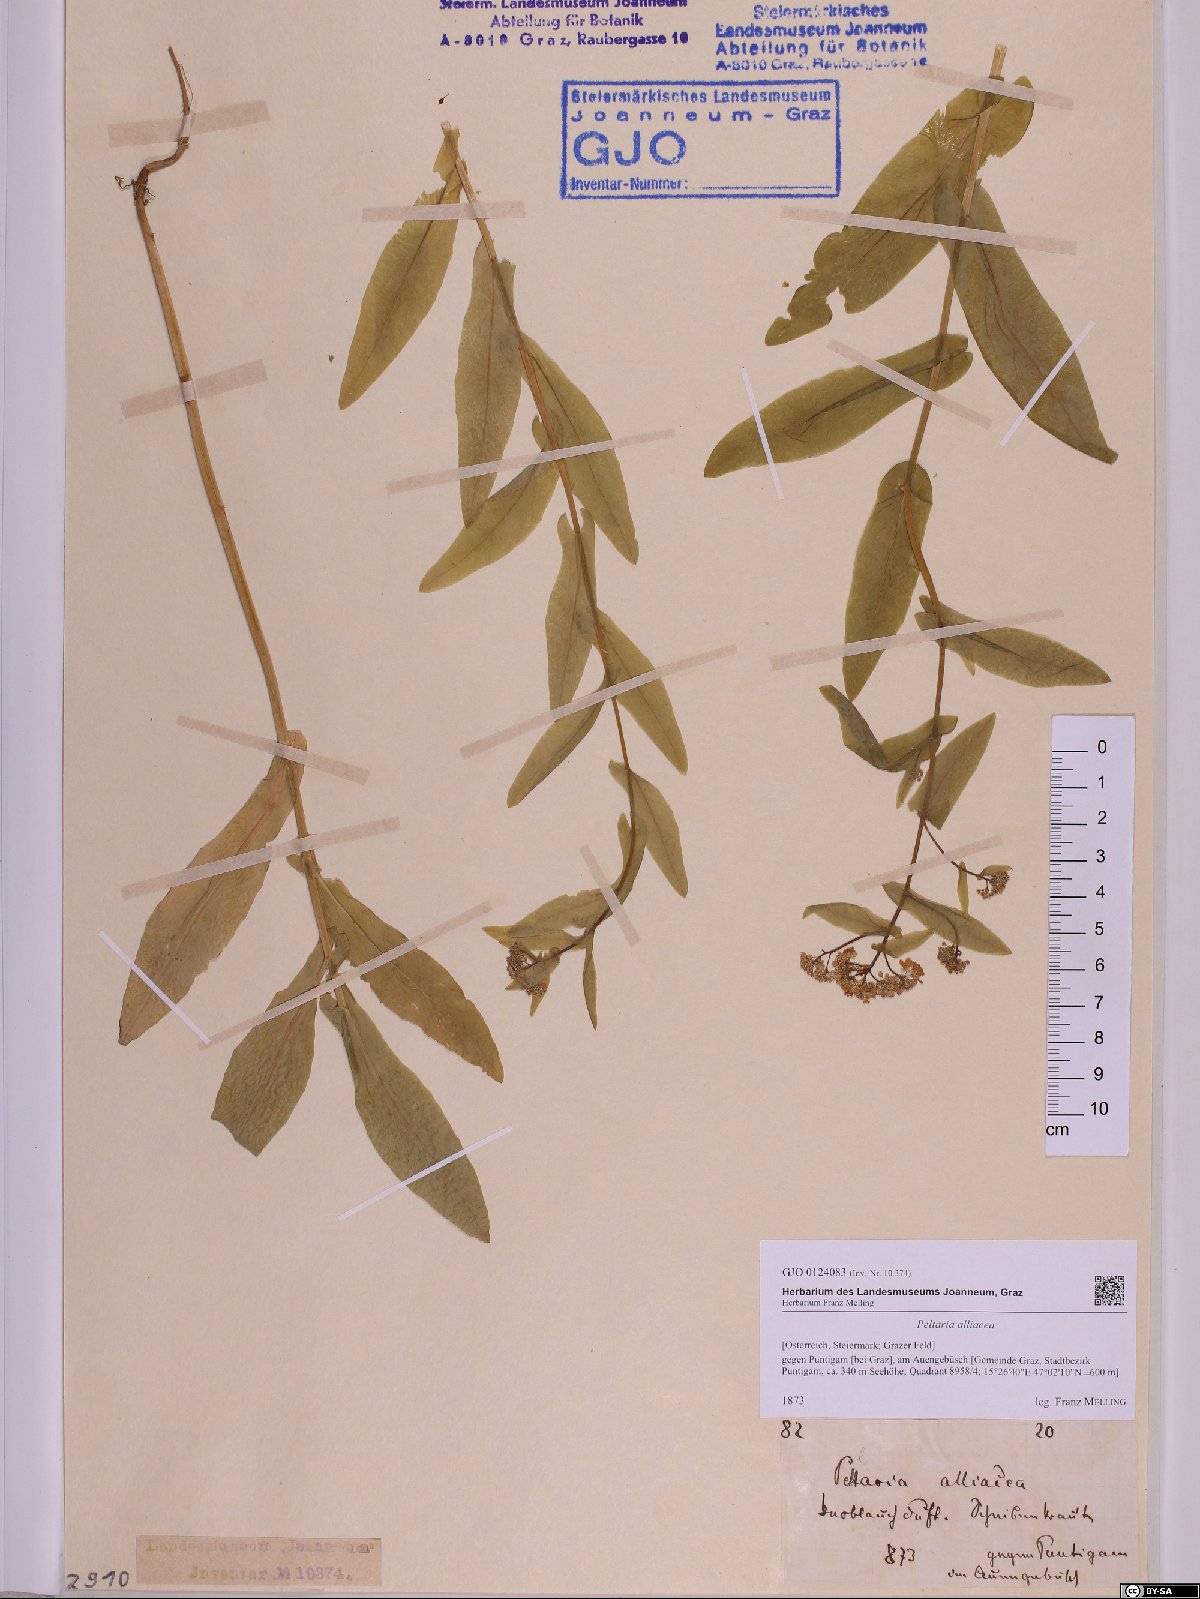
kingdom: Plantae
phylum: Tracheophyta
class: Magnoliopsida
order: Brassicales
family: Brassicaceae
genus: Peltaria
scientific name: Peltaria alliacea
